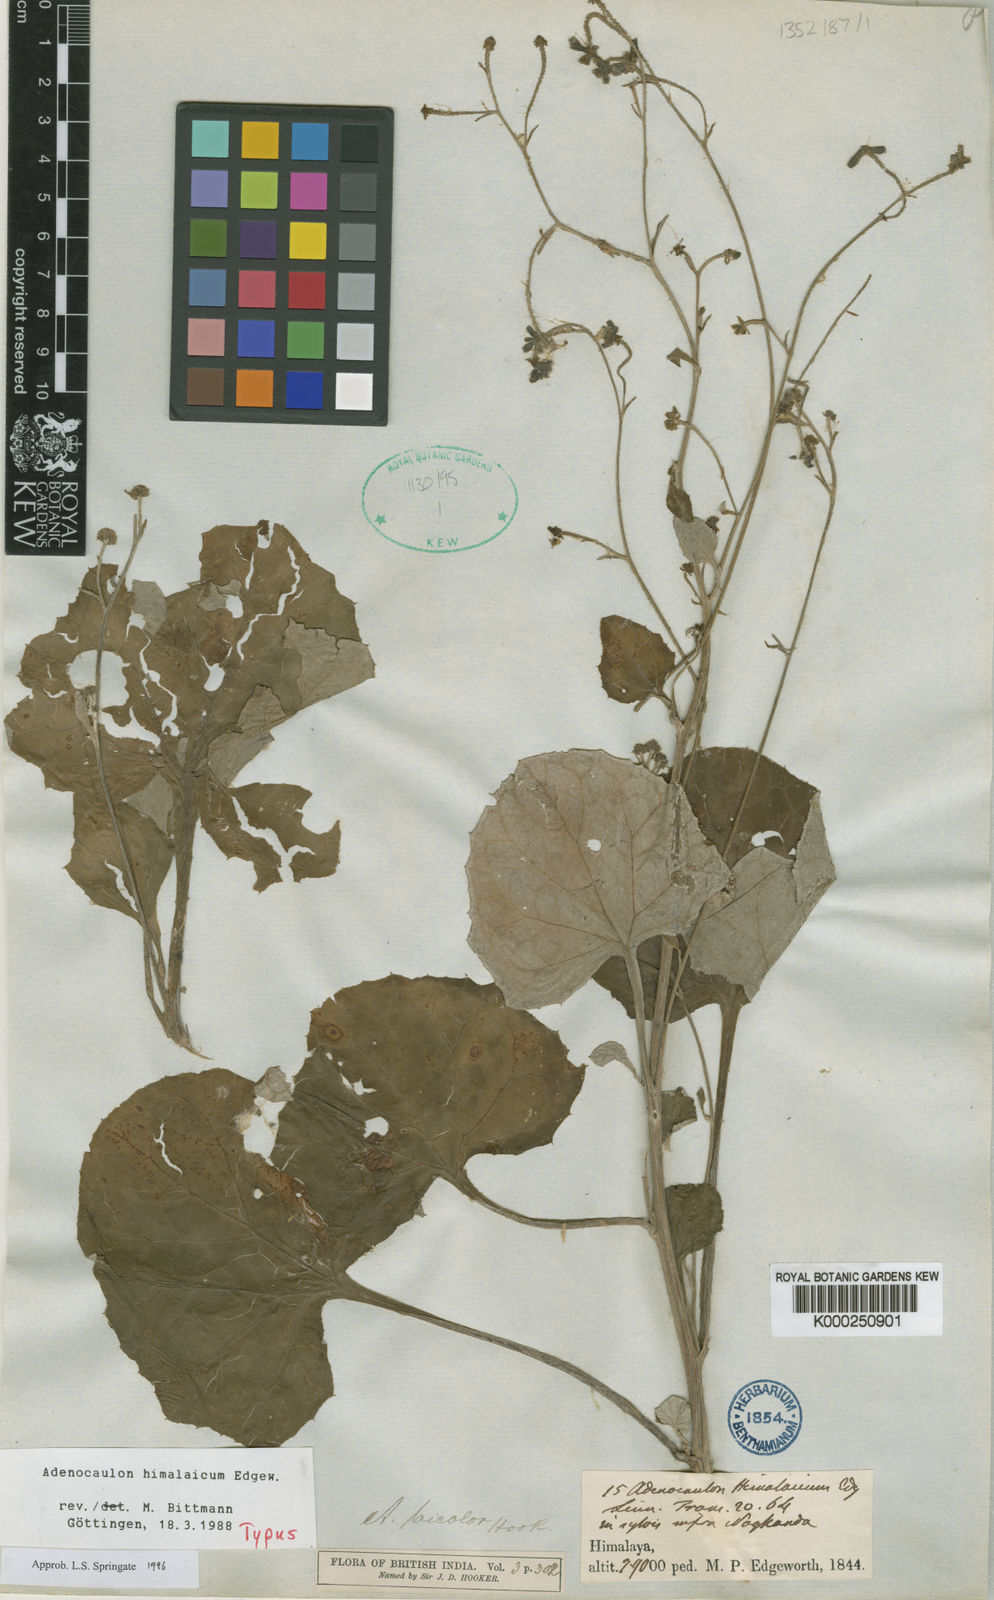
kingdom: Plantae
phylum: Tracheophyta
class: Magnoliopsida
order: Asterales
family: Asteraceae
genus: Adenocaulon
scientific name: Adenocaulon himalaicum
